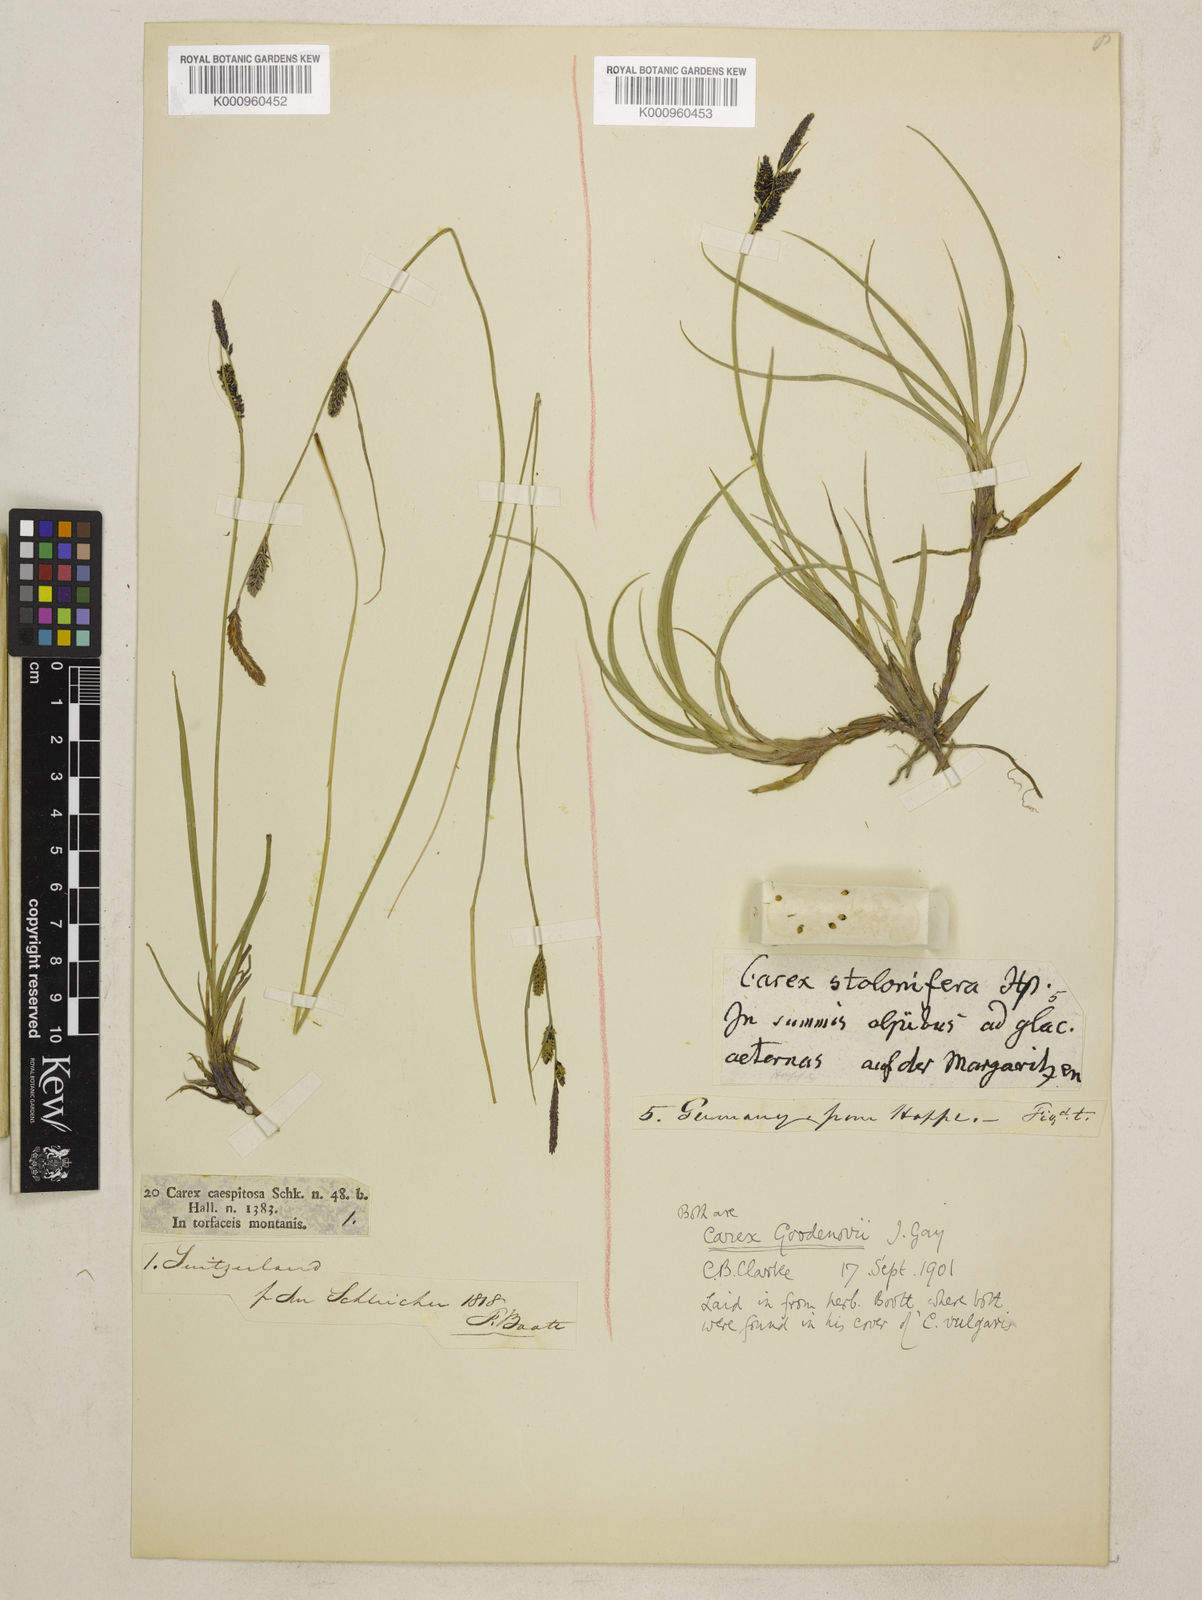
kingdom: Plantae
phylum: Tracheophyta
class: Liliopsida
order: Poales
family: Cyperaceae
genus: Carex
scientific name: Carex nigra
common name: Common sedge
